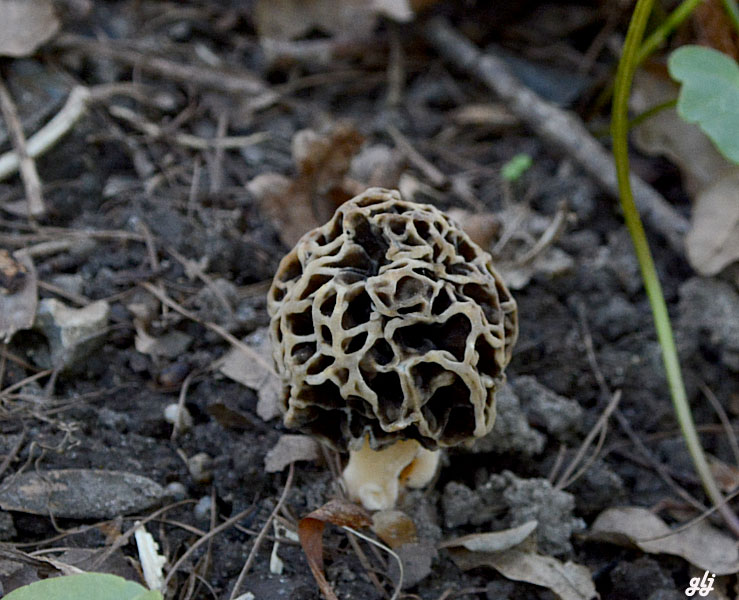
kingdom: Fungi
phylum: Ascomycota
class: Pezizomycetes
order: Pezizales
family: Morchellaceae
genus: Morchella
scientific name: Morchella esculenta
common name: almindelig morkel
